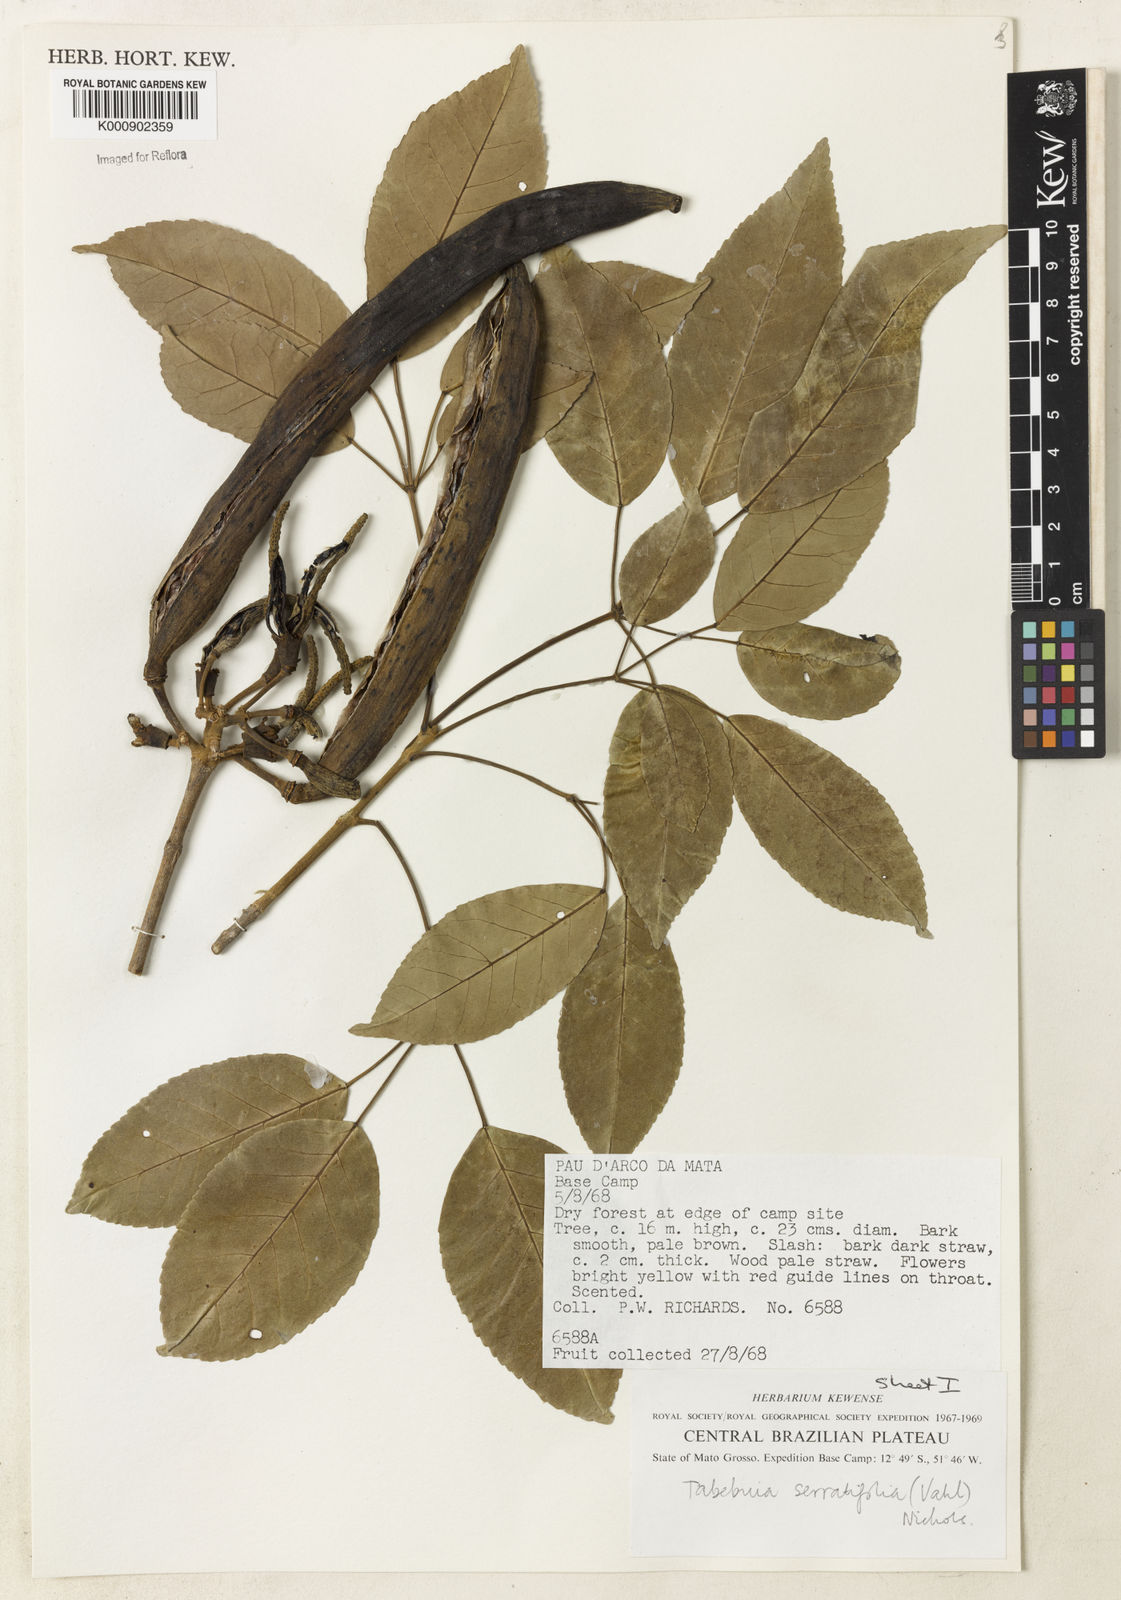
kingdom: Plantae
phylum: Tracheophyta
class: Magnoliopsida
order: Lamiales
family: Bignoniaceae
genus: Handroanthus
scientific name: Handroanthus serratifolius
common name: Yellow ipe
